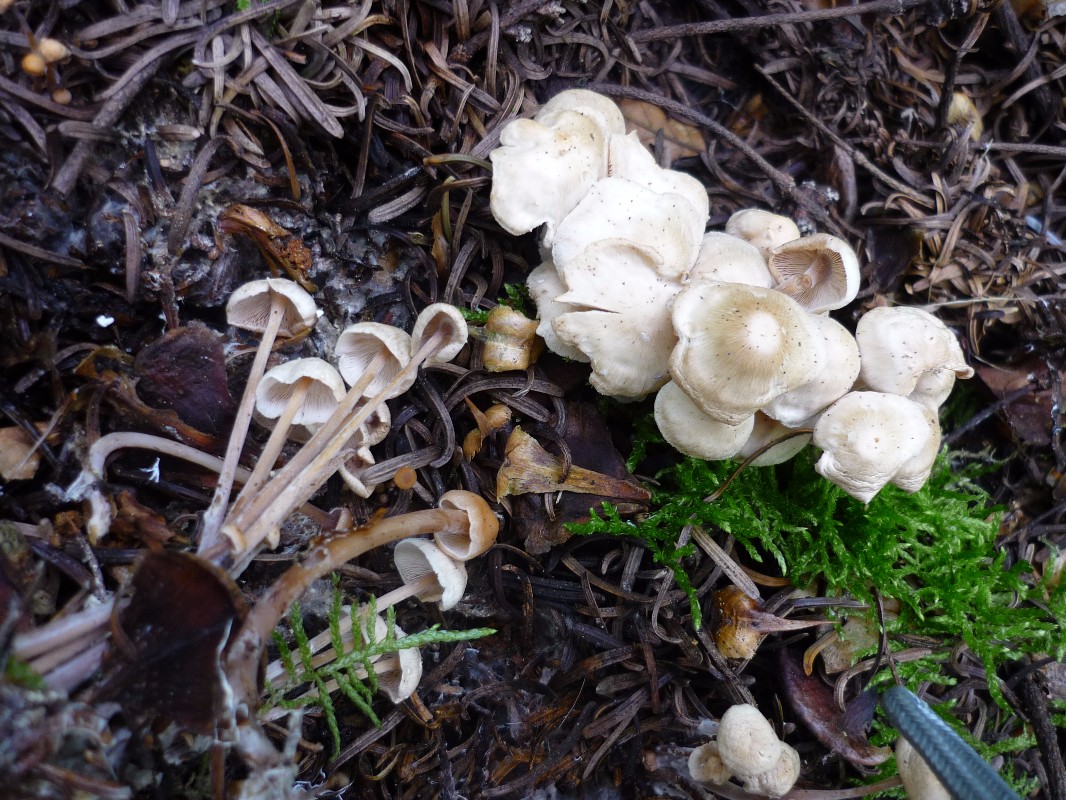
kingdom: Fungi
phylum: Basidiomycota
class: Agaricomycetes
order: Agaricales
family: Omphalotaceae
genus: Collybiopsis
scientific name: Collybiopsis confluens
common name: knippe-fladhat
